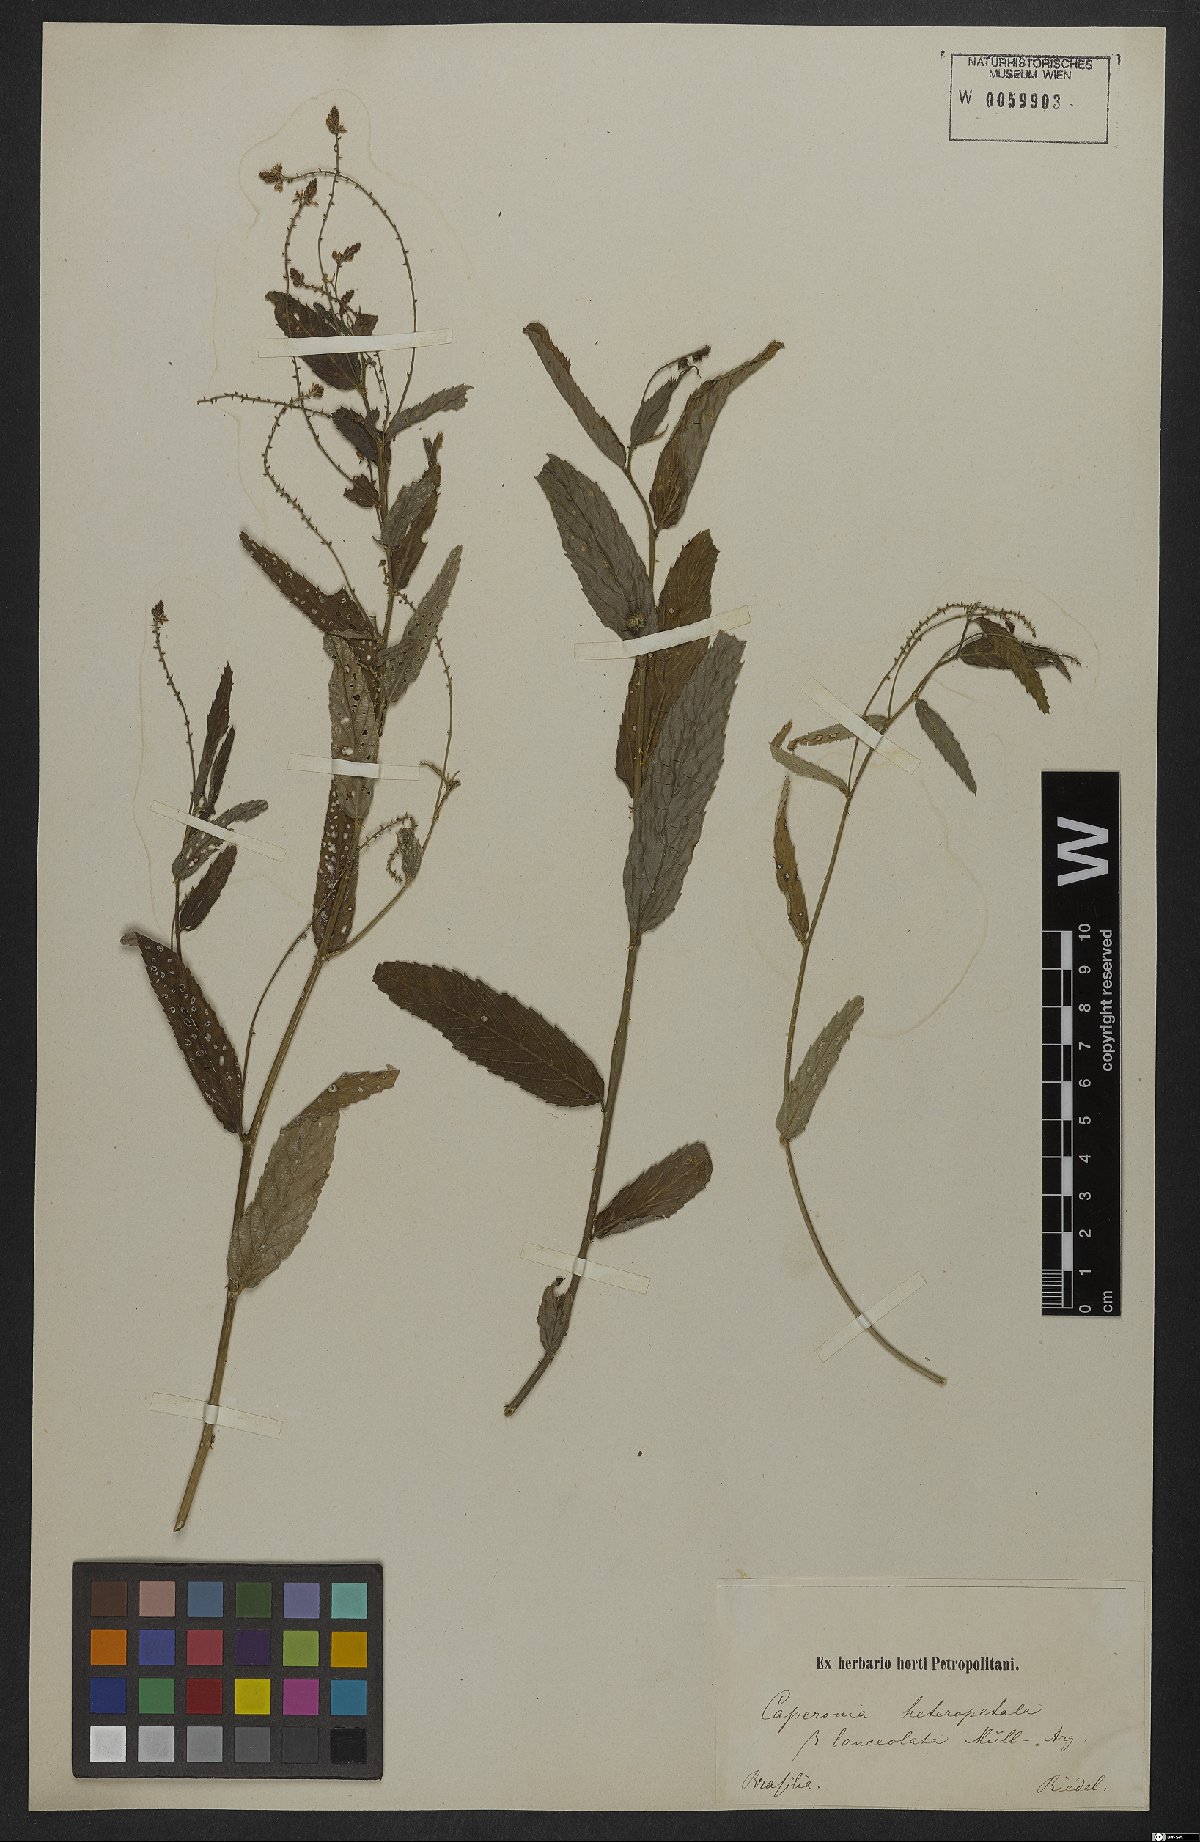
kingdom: Plantae
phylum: Tracheophyta
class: Magnoliopsida
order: Malpighiales
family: Euphorbiaceae
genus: Caperonia
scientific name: Caperonia heteropetala
